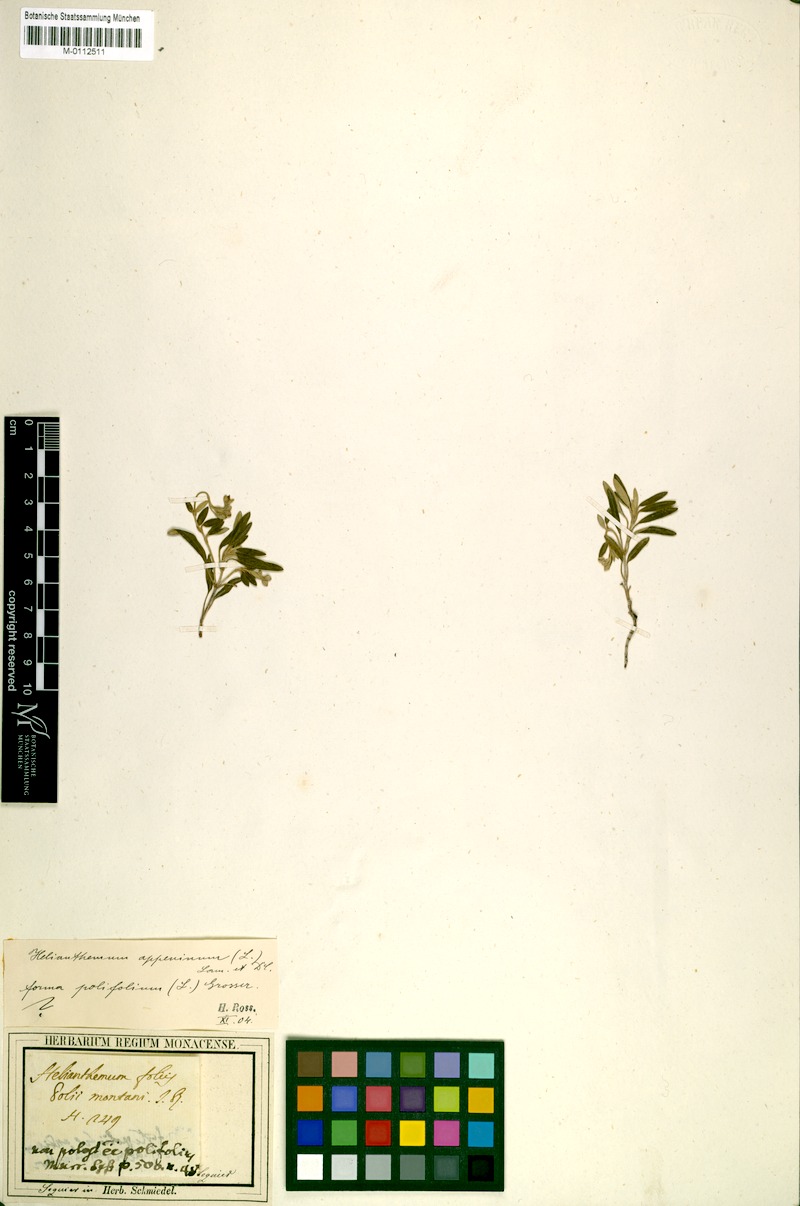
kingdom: Plantae
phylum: Tracheophyta
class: Magnoliopsida
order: Malvales
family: Cistaceae
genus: Helianthemum
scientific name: Helianthemum apenninum
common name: White rock-rose
